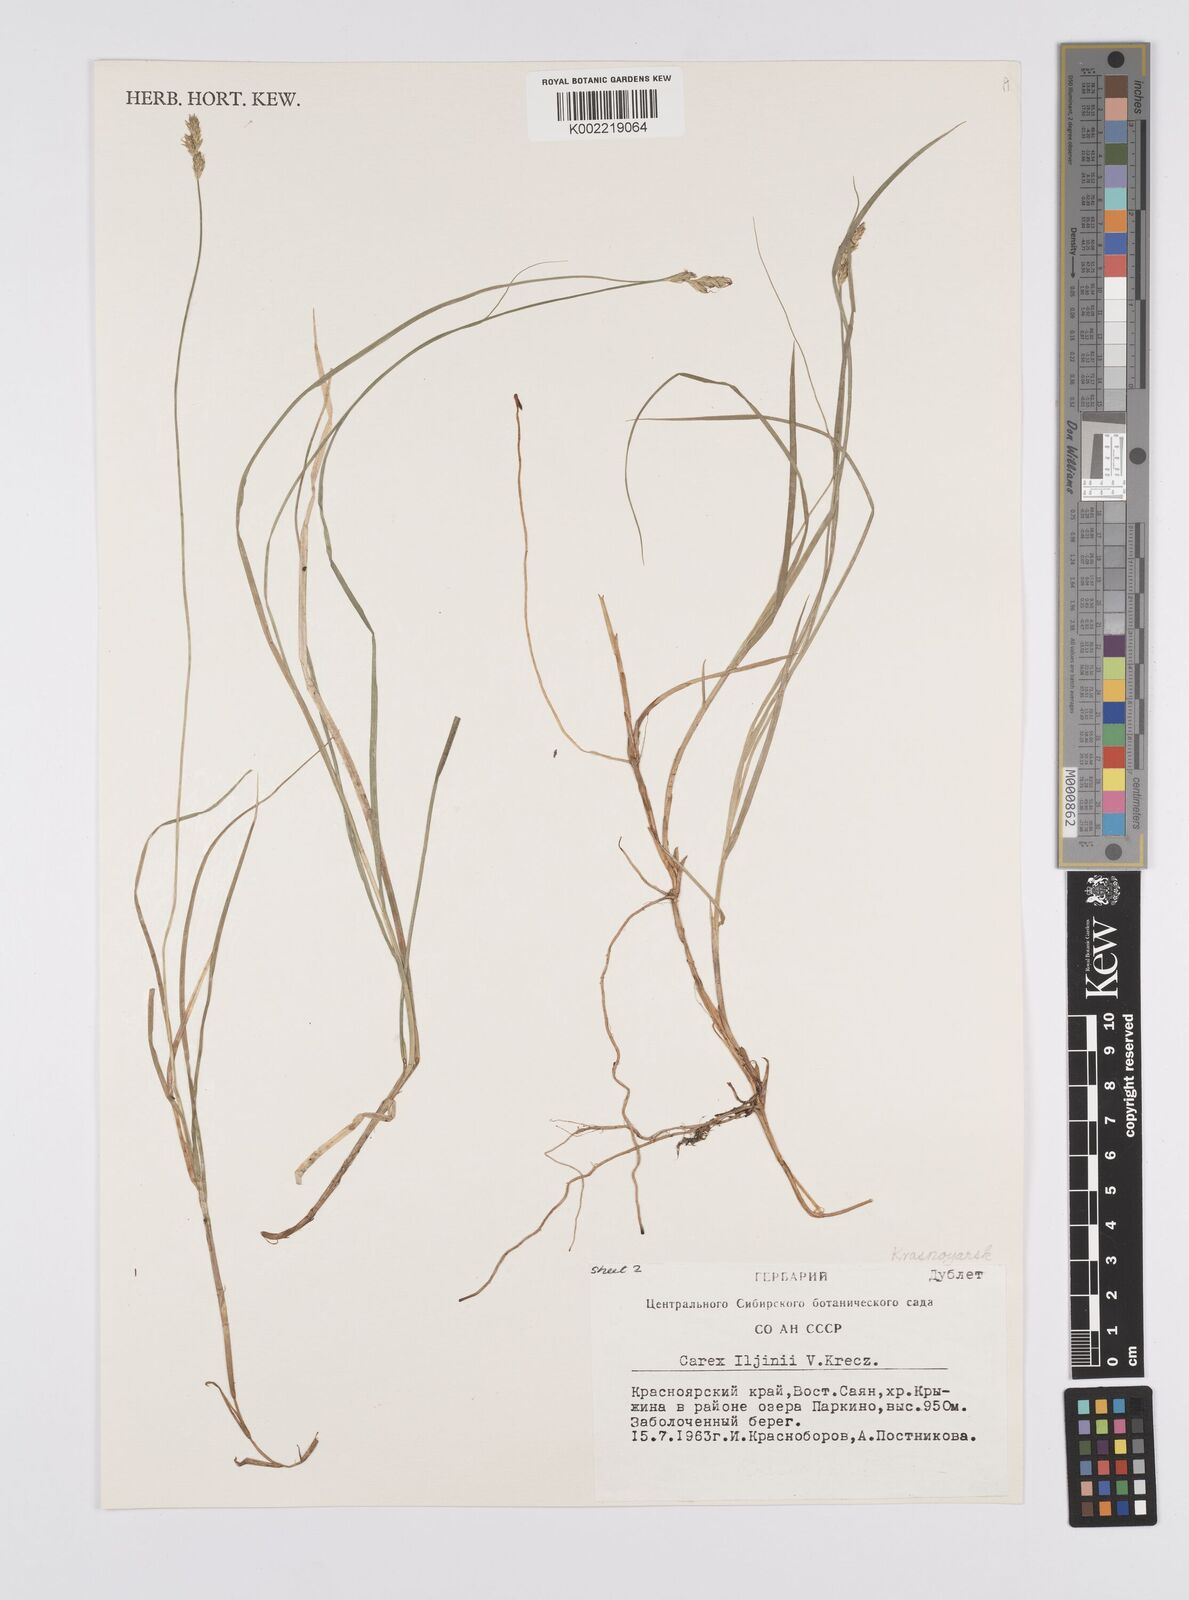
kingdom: Plantae
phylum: Tracheophyta
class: Liliopsida
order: Poales
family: Cyperaceae
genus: Carex
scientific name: Carex iljinii
